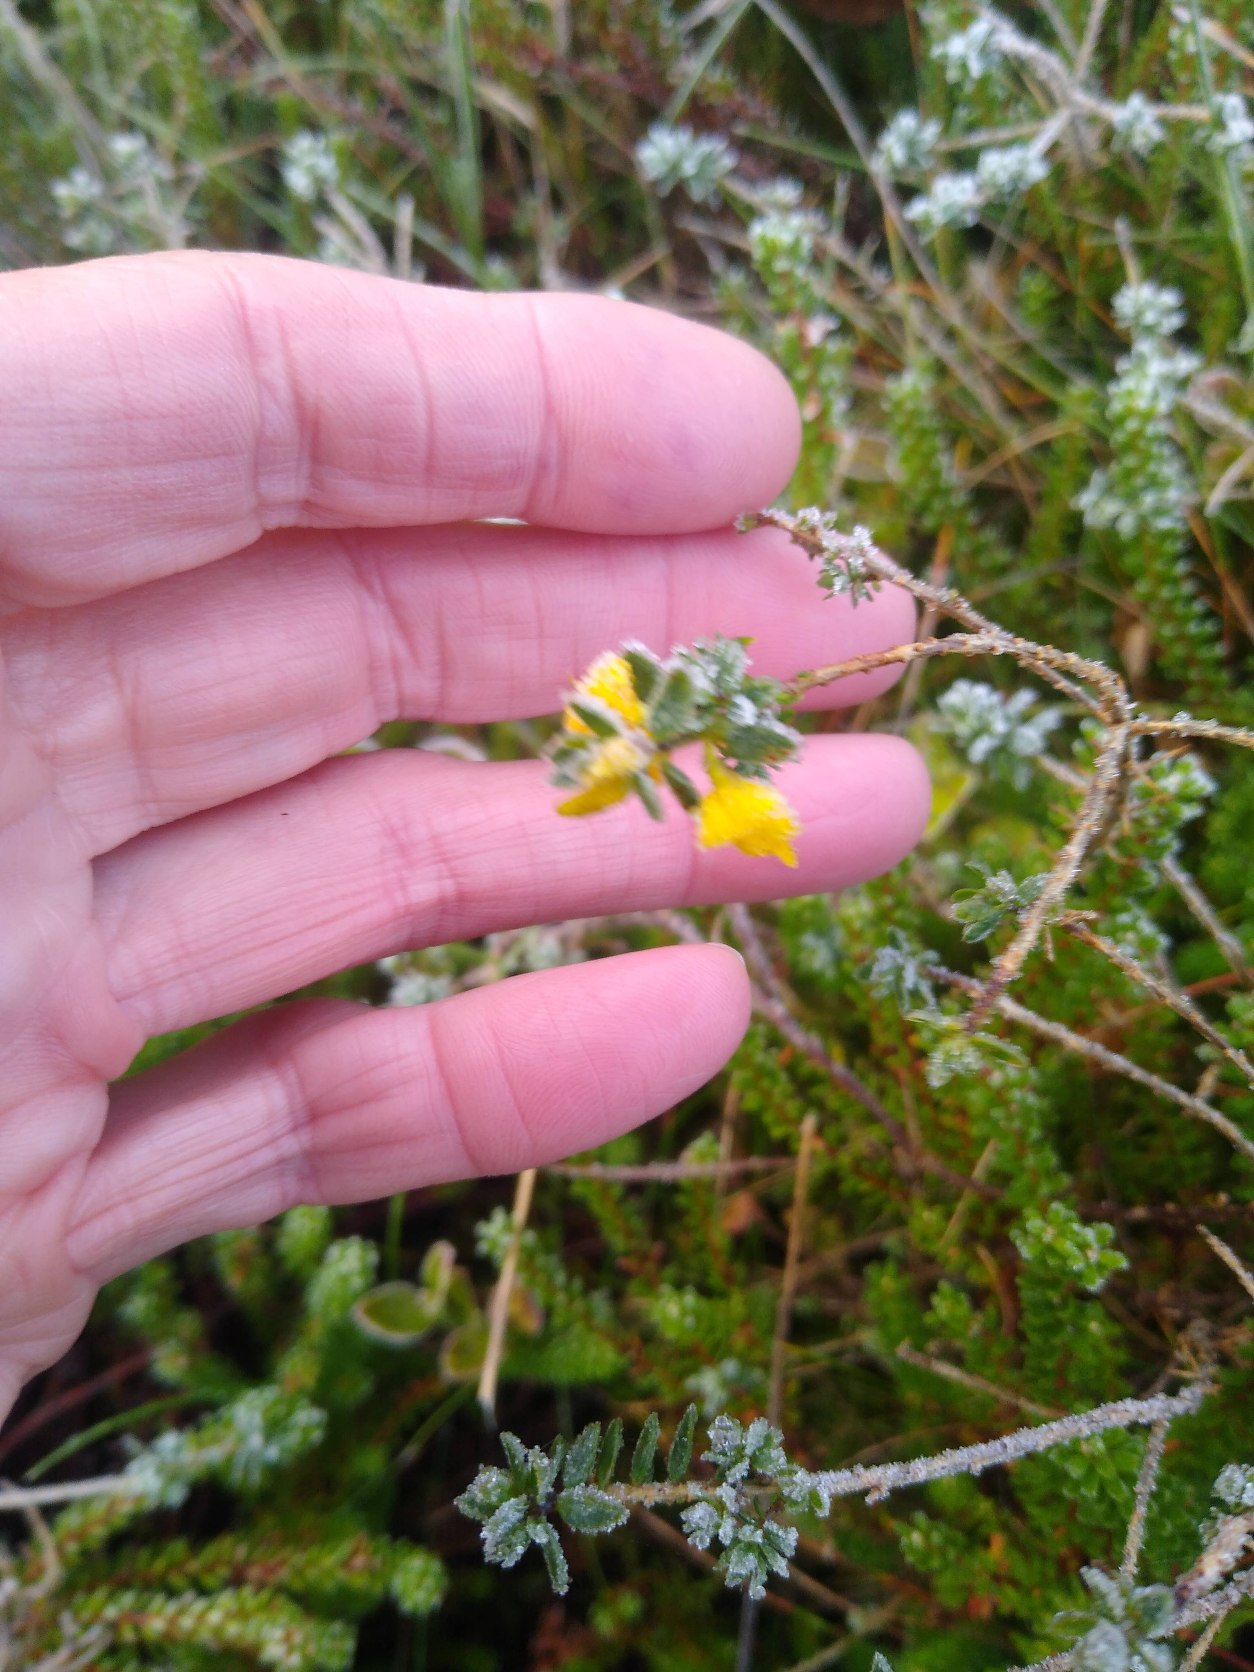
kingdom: Plantae
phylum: Tracheophyta
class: Magnoliopsida
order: Fabales
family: Fabaceae
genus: Genista
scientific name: Genista anglica
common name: Engelsk visse
